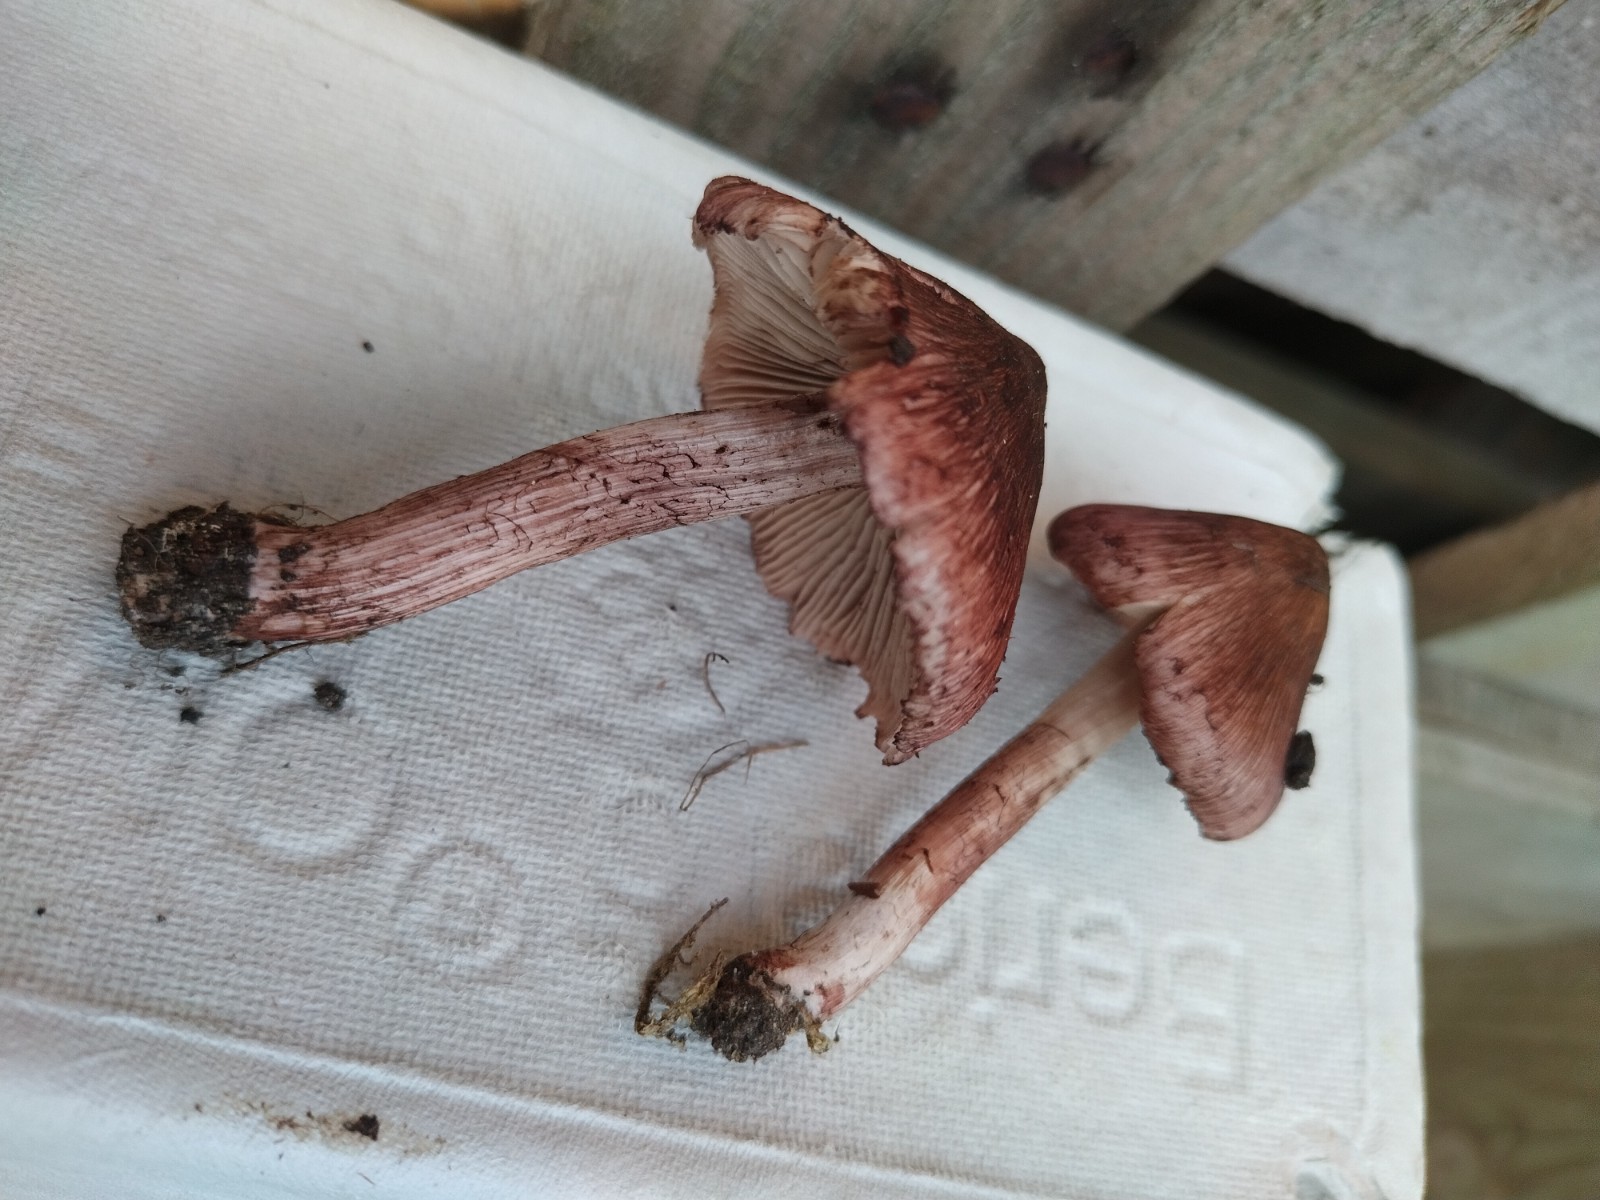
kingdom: Fungi
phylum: Basidiomycota
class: Agaricomycetes
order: Agaricales
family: Inocybaceae
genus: Inosperma
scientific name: Inosperma adaequatum
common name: vinrød trævlhat
